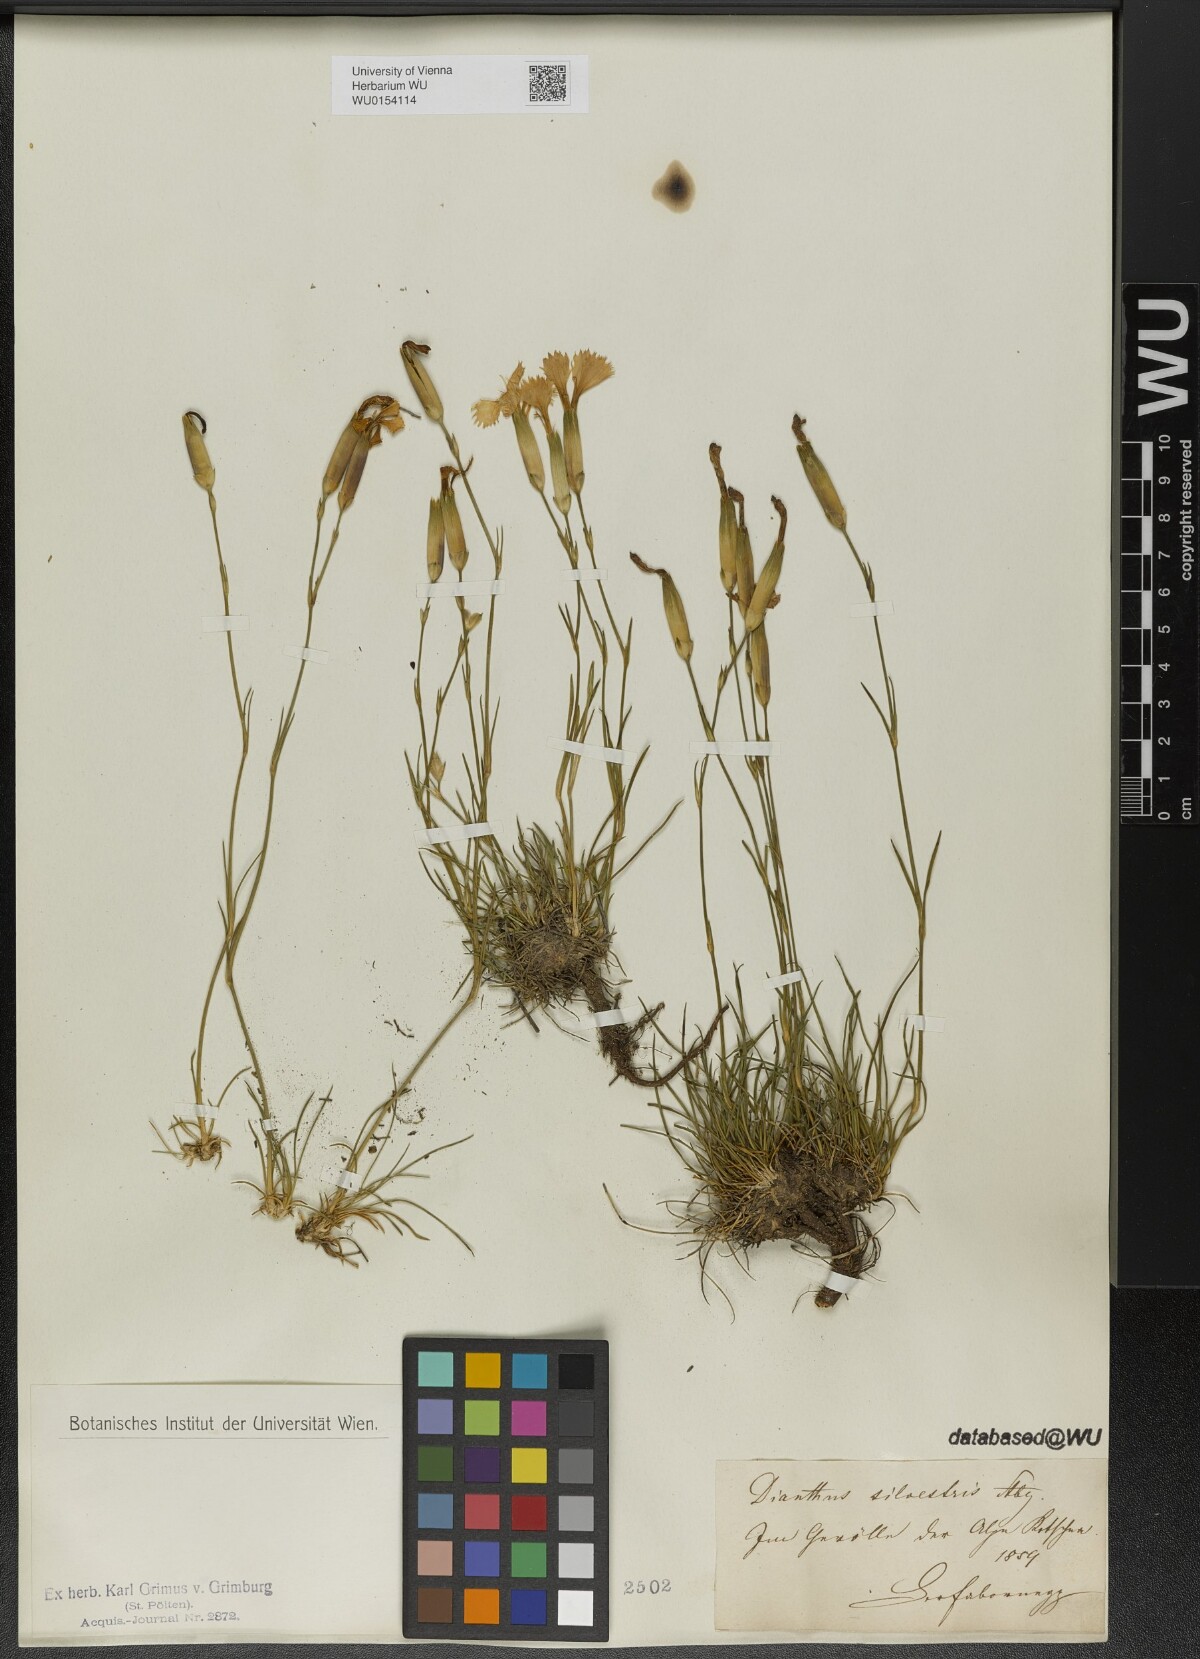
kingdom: Plantae
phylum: Tracheophyta
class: Magnoliopsida
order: Caryophyllales
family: Caryophyllaceae
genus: Dianthus
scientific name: Dianthus sylvestris
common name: Wood pink
